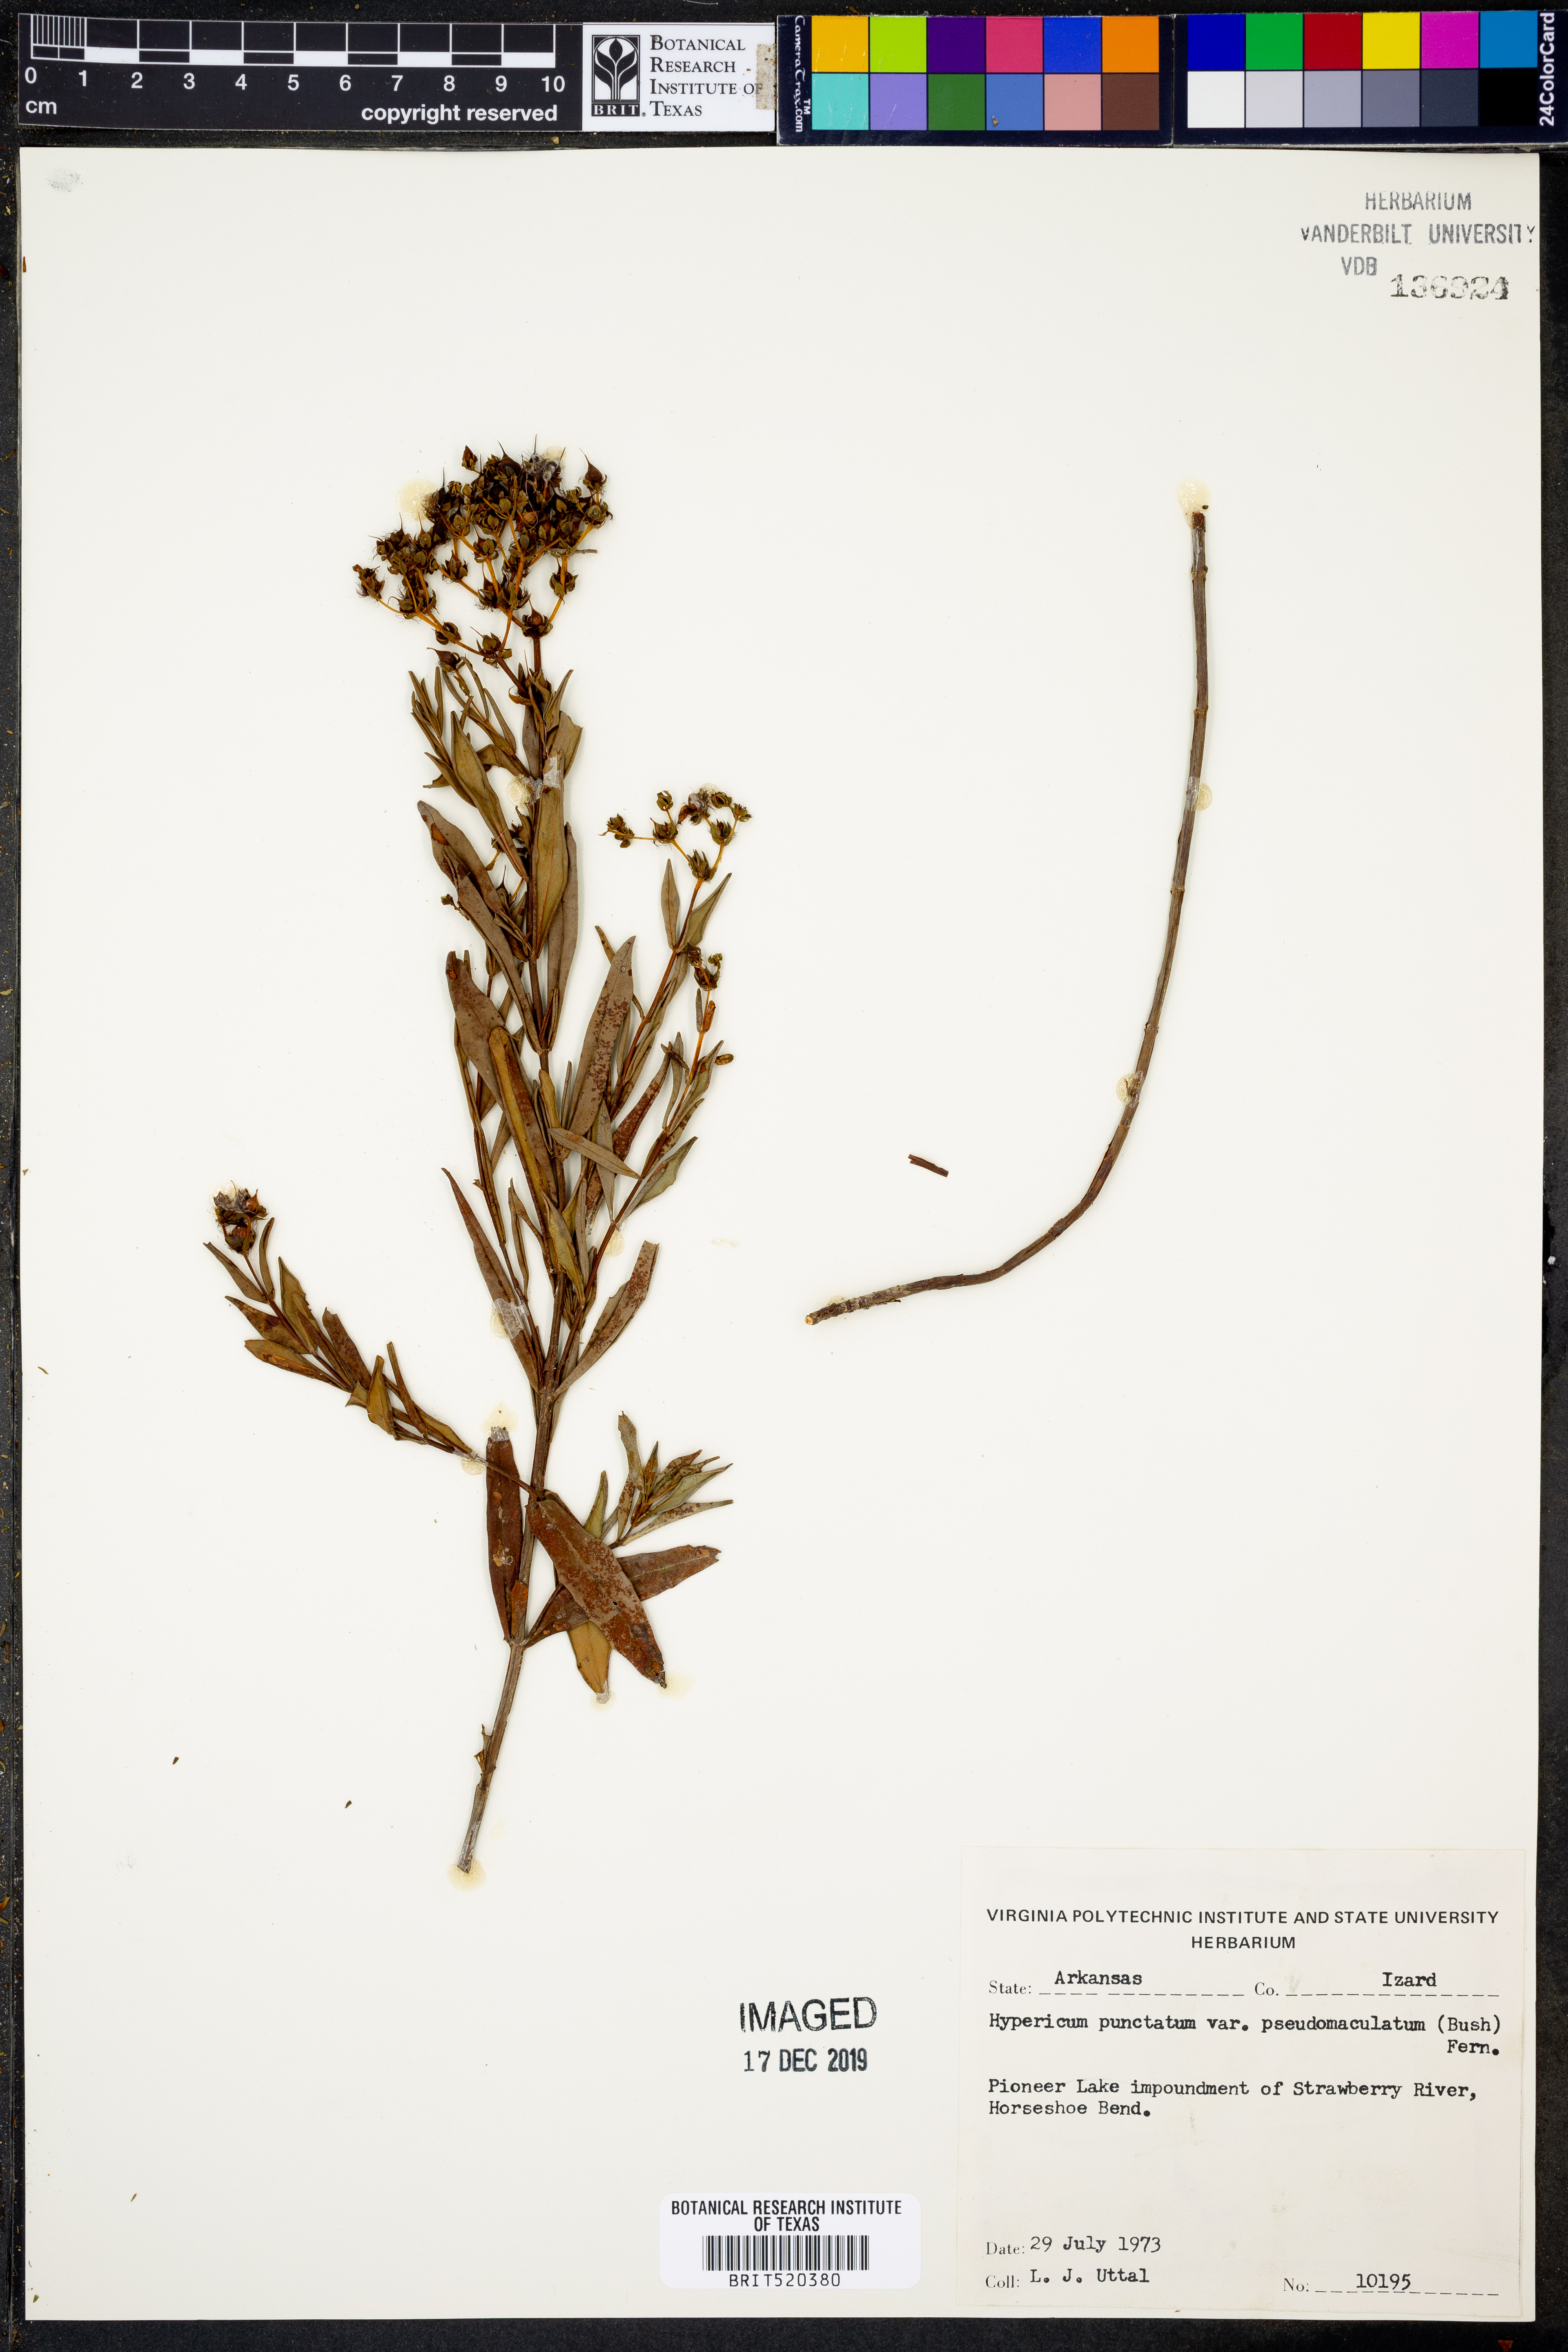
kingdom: Plantae
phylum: Tracheophyta
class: Magnoliopsida
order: Malpighiales
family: Hypericaceae
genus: Hypericum
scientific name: Hypericum pseudomaculatum
